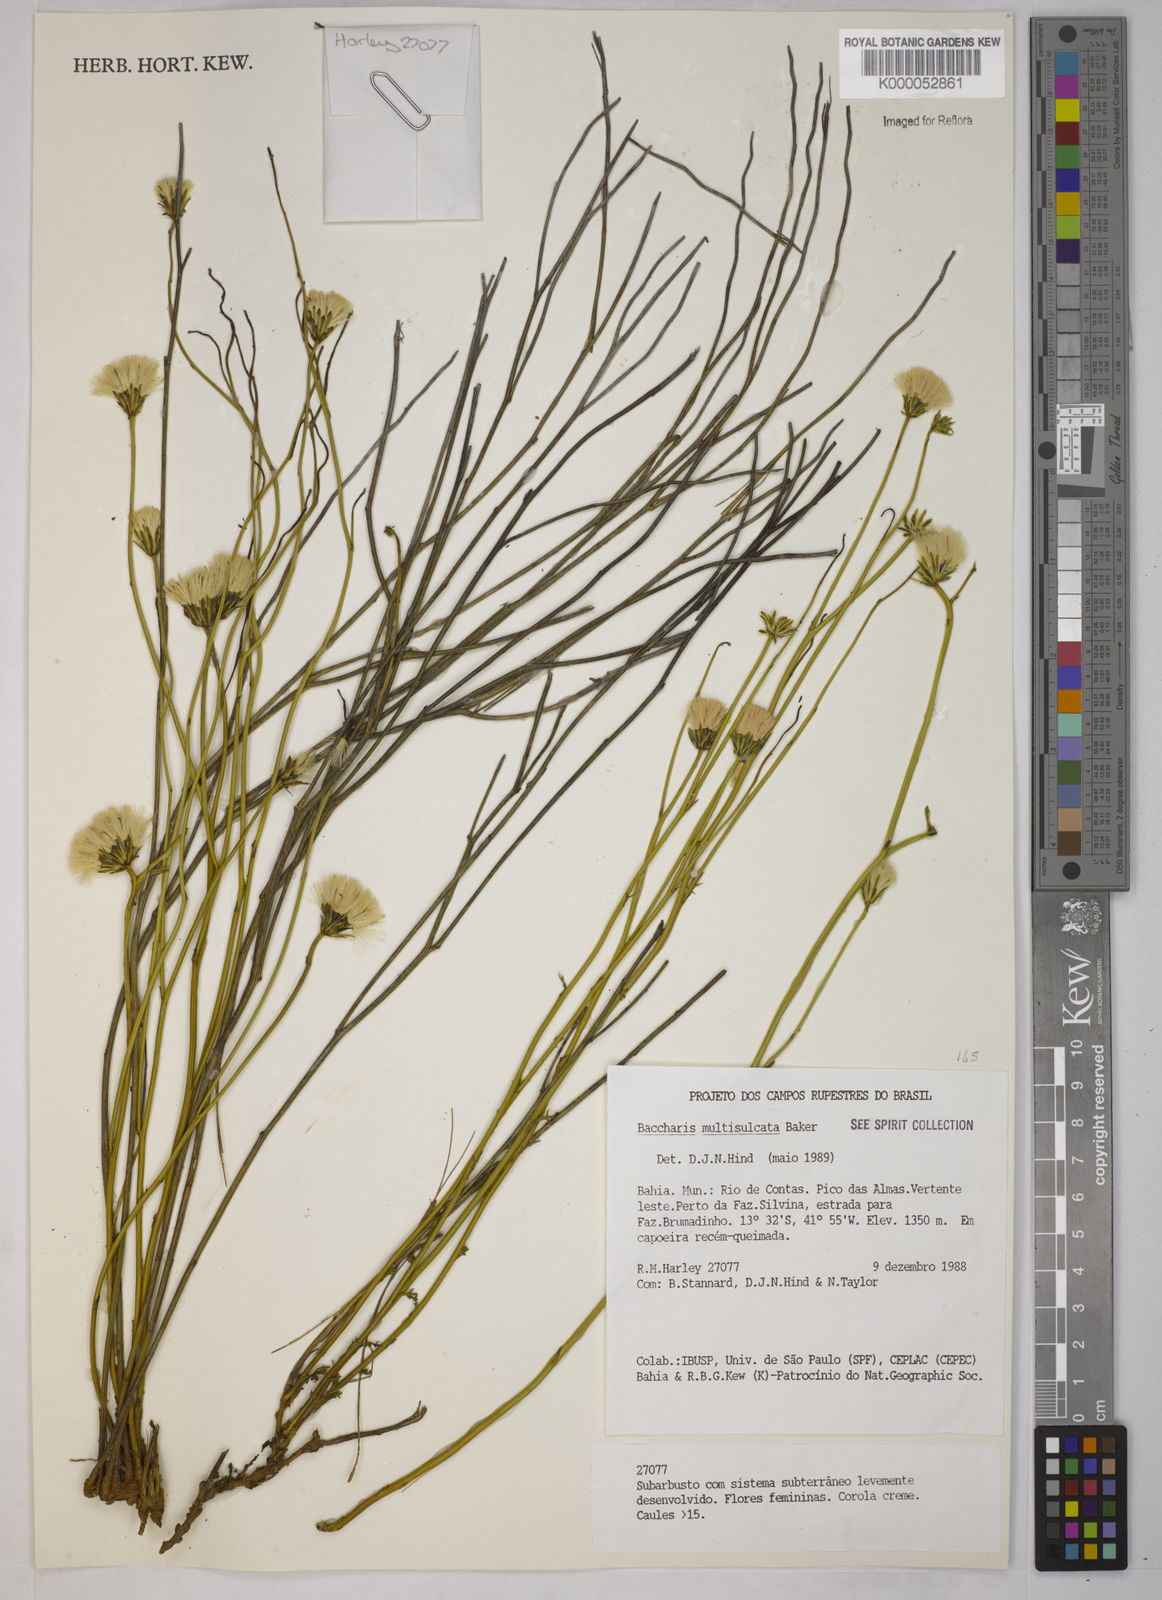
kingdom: Plantae
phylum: Tracheophyta
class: Magnoliopsida
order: Asterales
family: Asteraceae
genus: Baccharis
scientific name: Baccharis orbignyana
